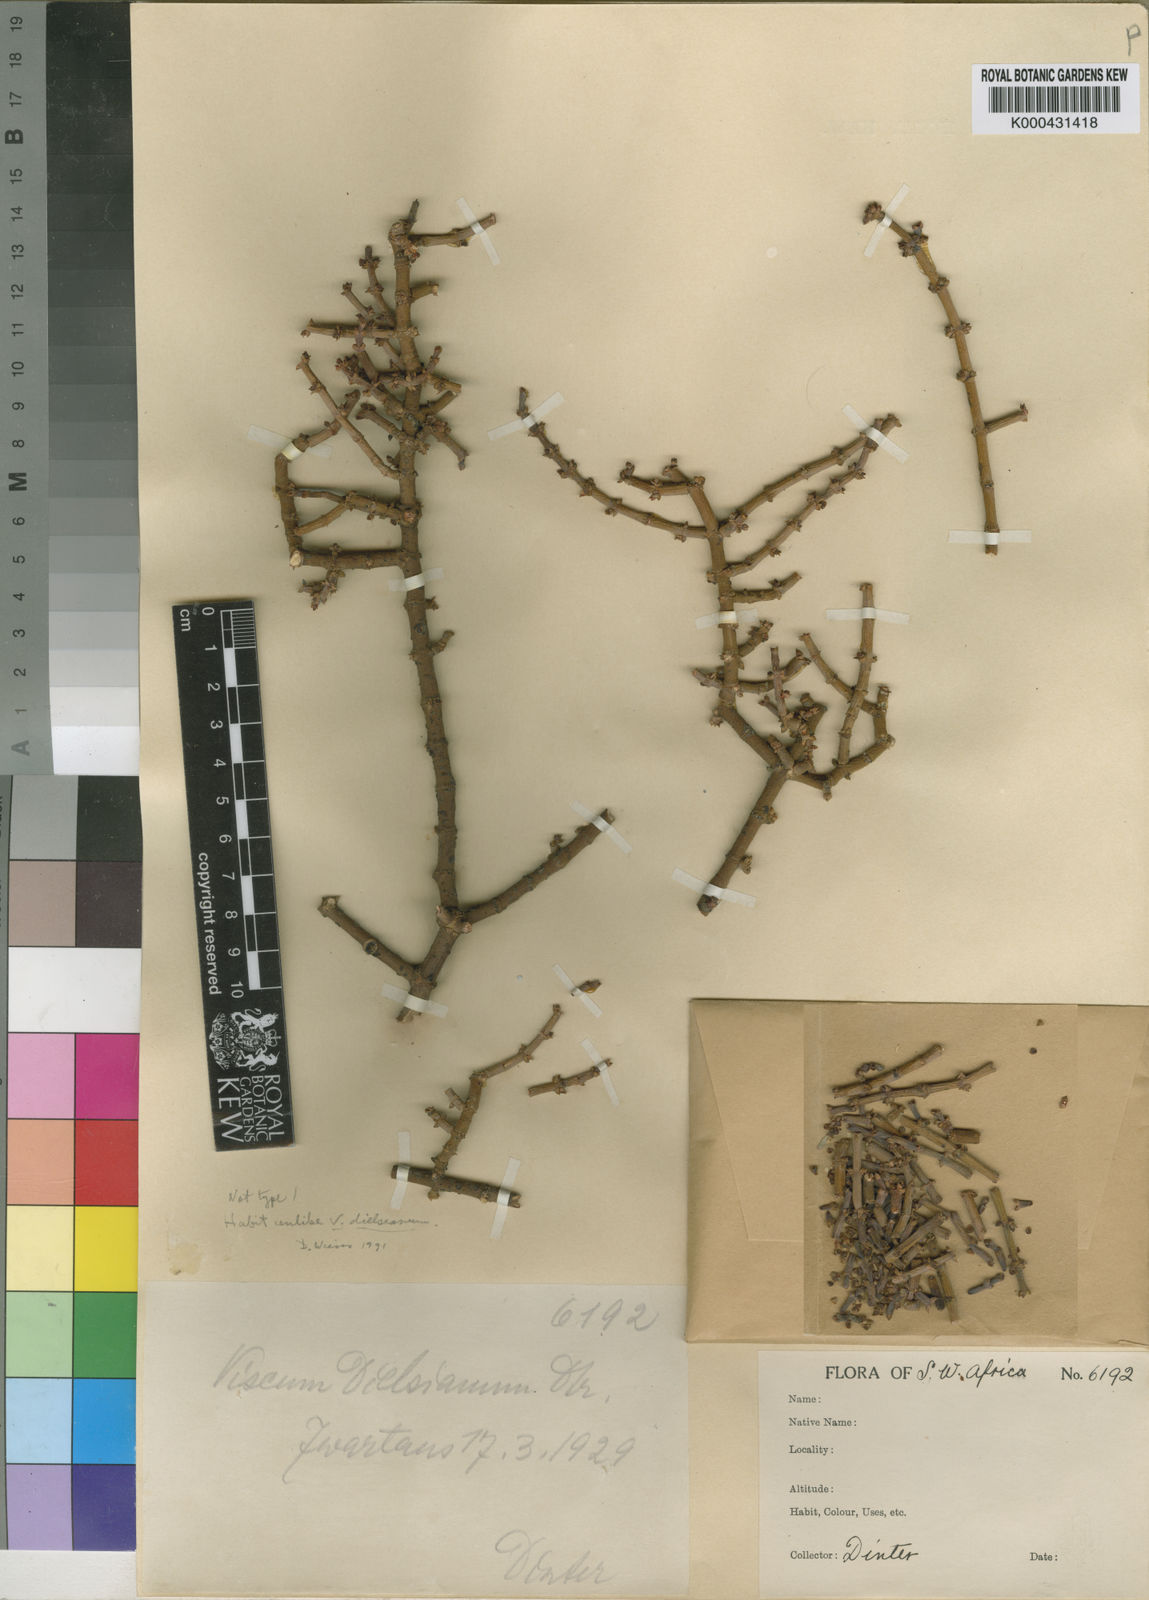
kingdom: Plantae
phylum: Tracheophyta
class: Magnoliopsida
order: Santalales
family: Viscaceae
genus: Viscum
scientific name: Viscum capense
